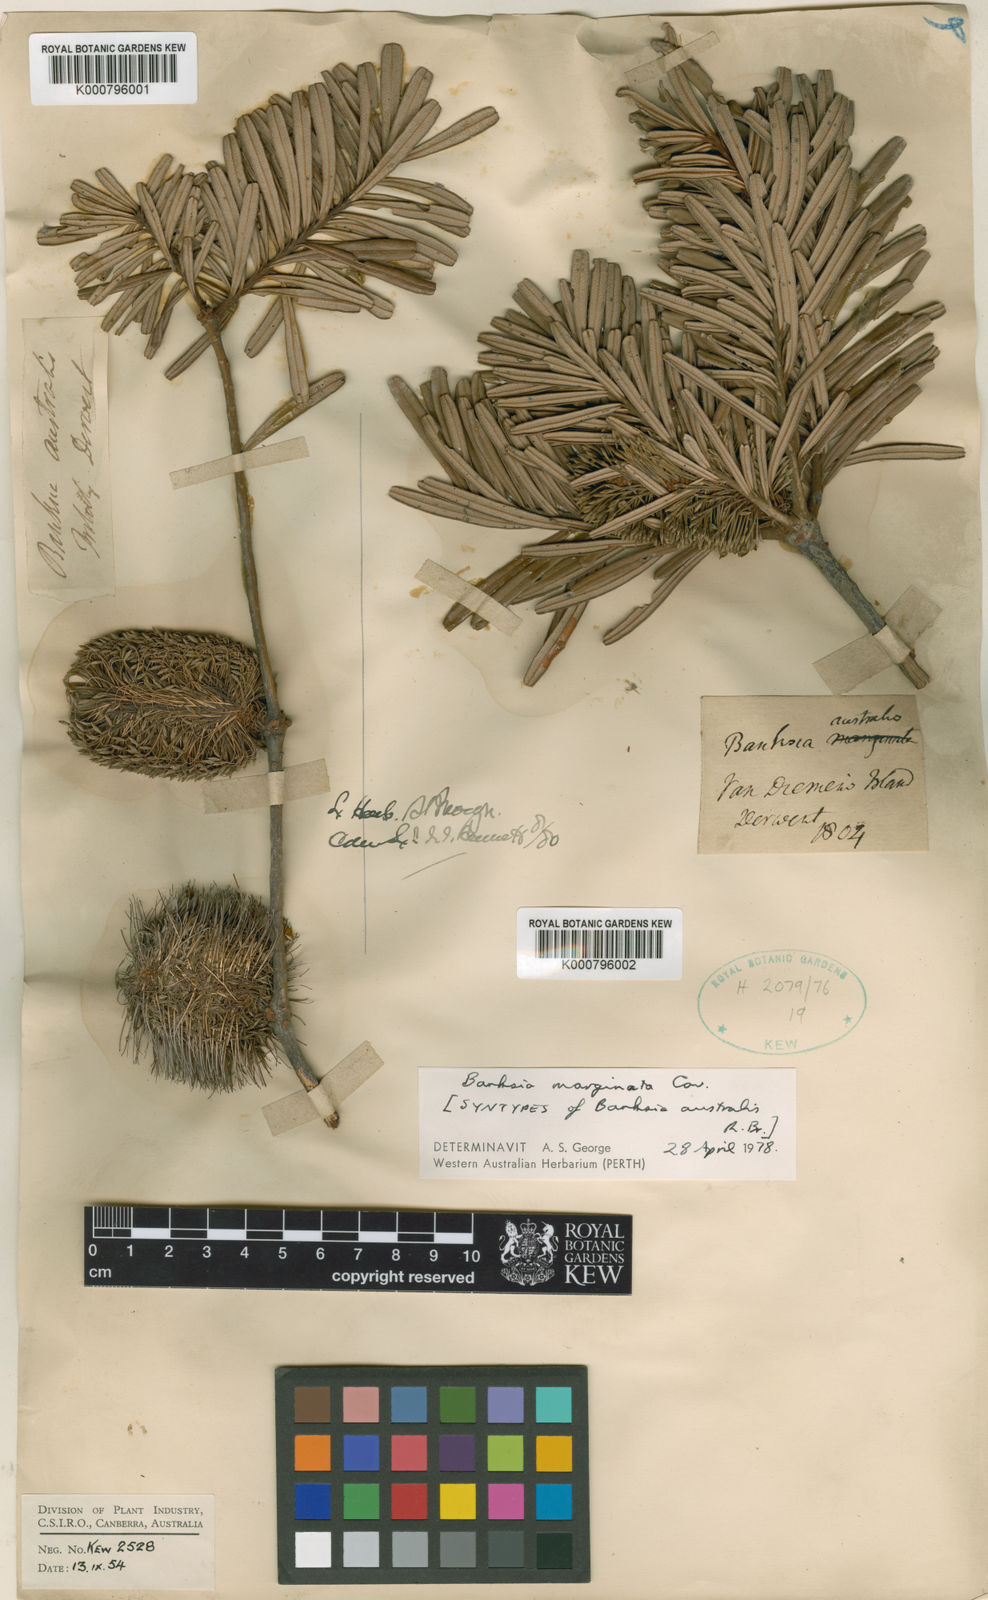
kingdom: Plantae
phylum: Tracheophyta
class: Magnoliopsida
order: Proteales
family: Proteaceae
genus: Banksia
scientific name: Banksia marginata
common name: Silver banksia
